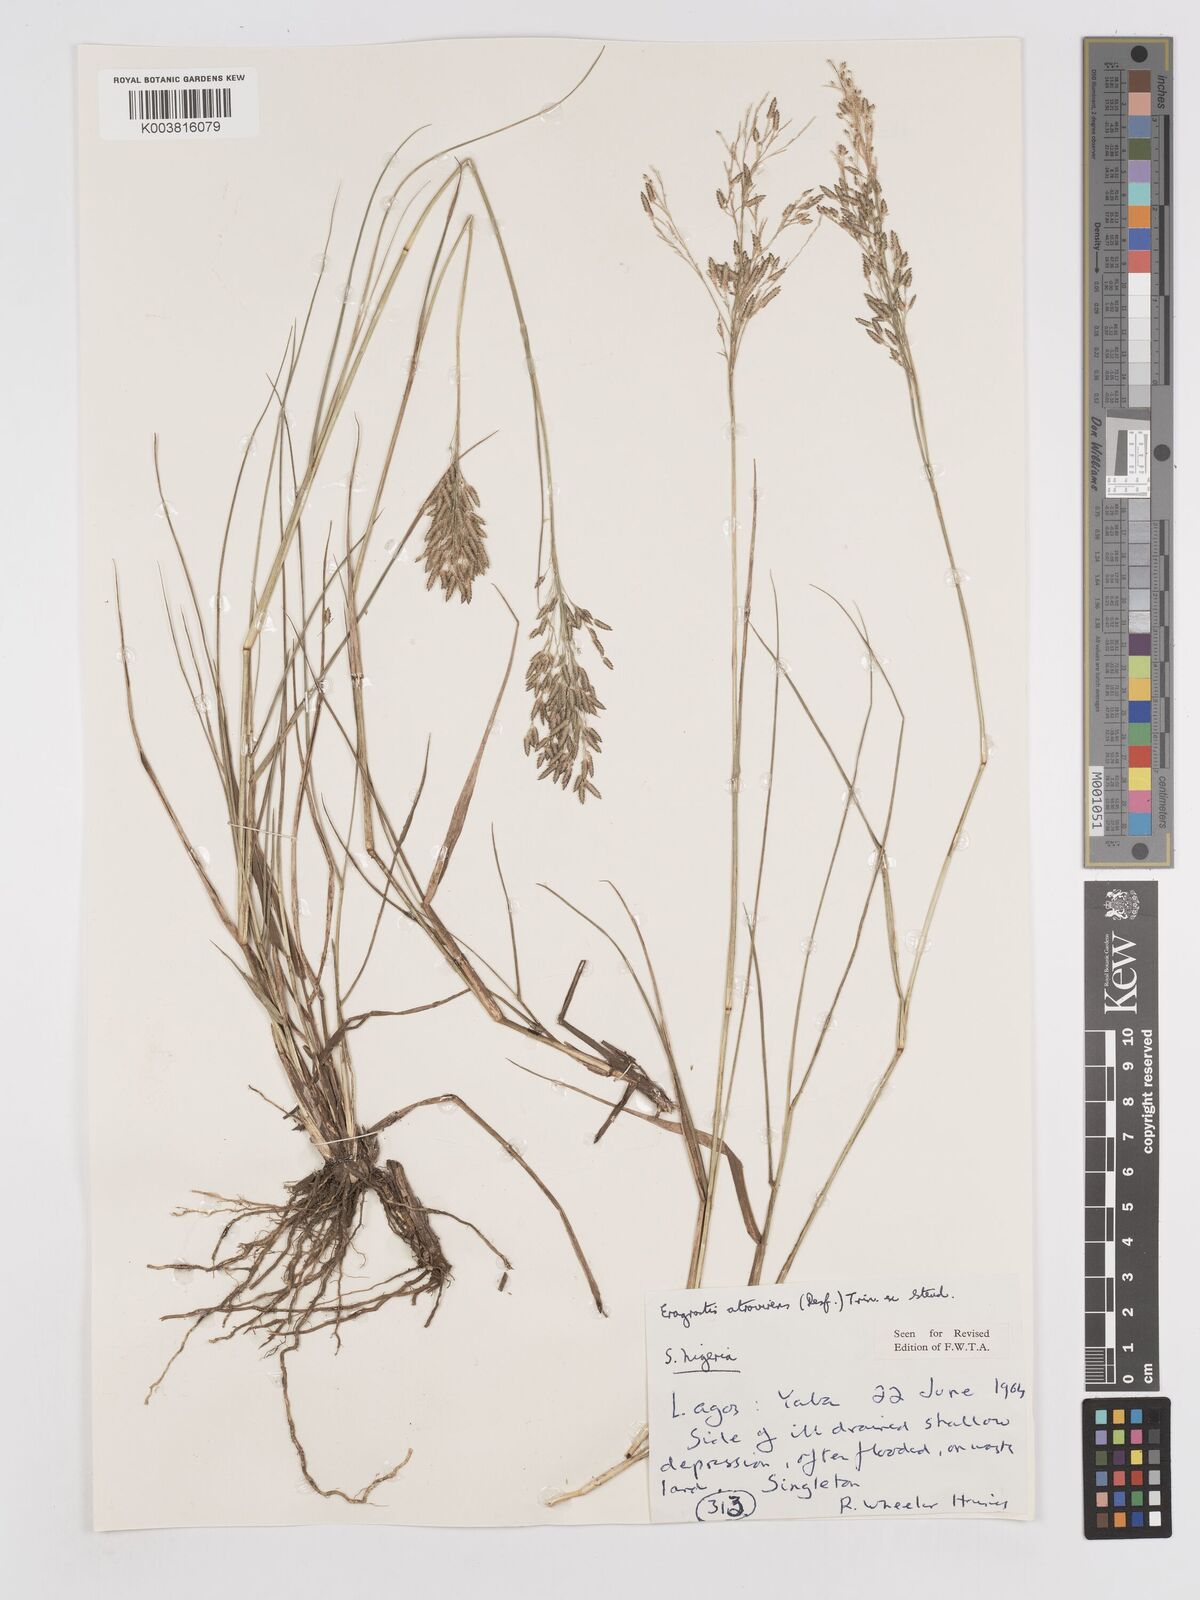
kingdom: Plantae
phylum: Tracheophyta
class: Liliopsida
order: Poales
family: Poaceae
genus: Eragrostis
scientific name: Eragrostis atrovirens
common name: Thalia lovegrass
